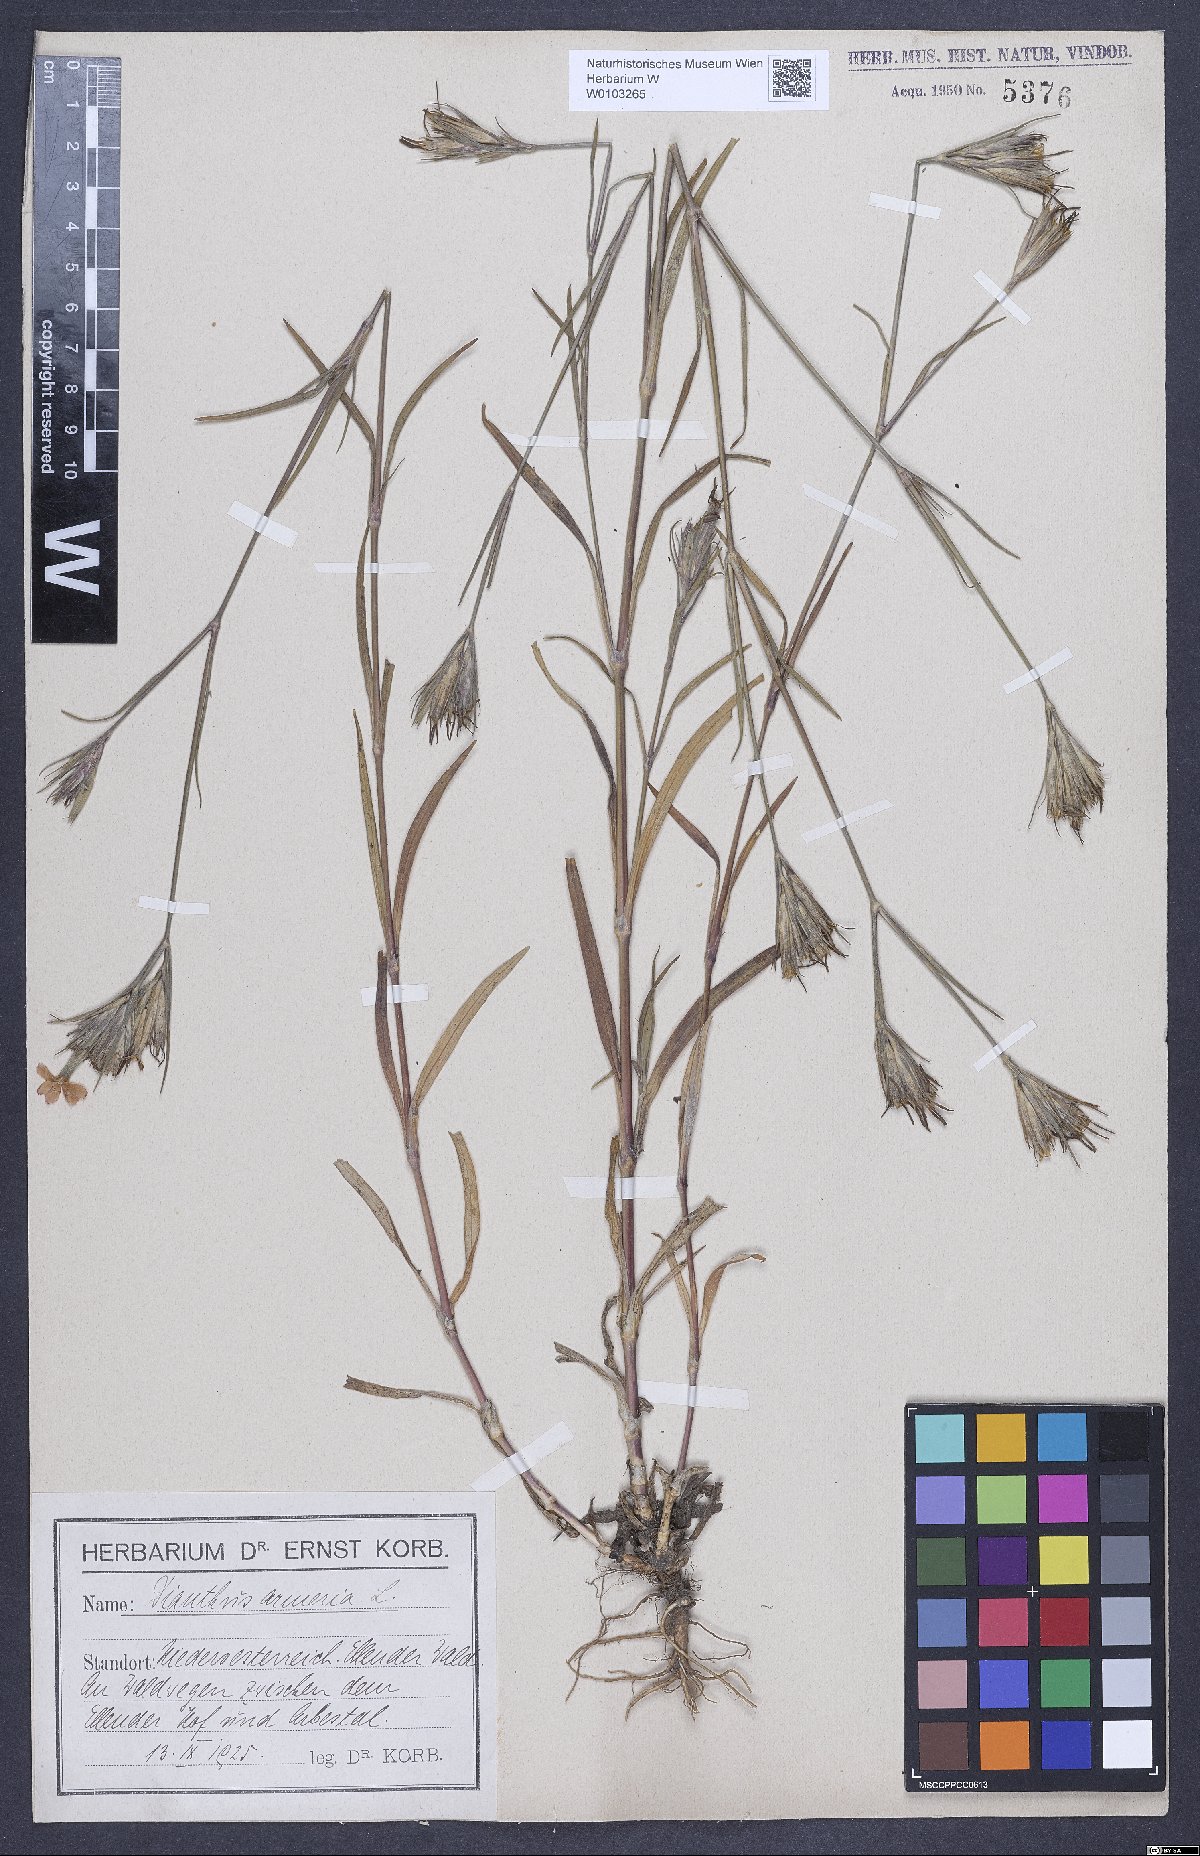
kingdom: Plantae
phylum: Tracheophyta
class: Magnoliopsida
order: Caryophyllales
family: Caryophyllaceae
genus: Dianthus
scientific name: Dianthus armeria
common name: Deptford pink
